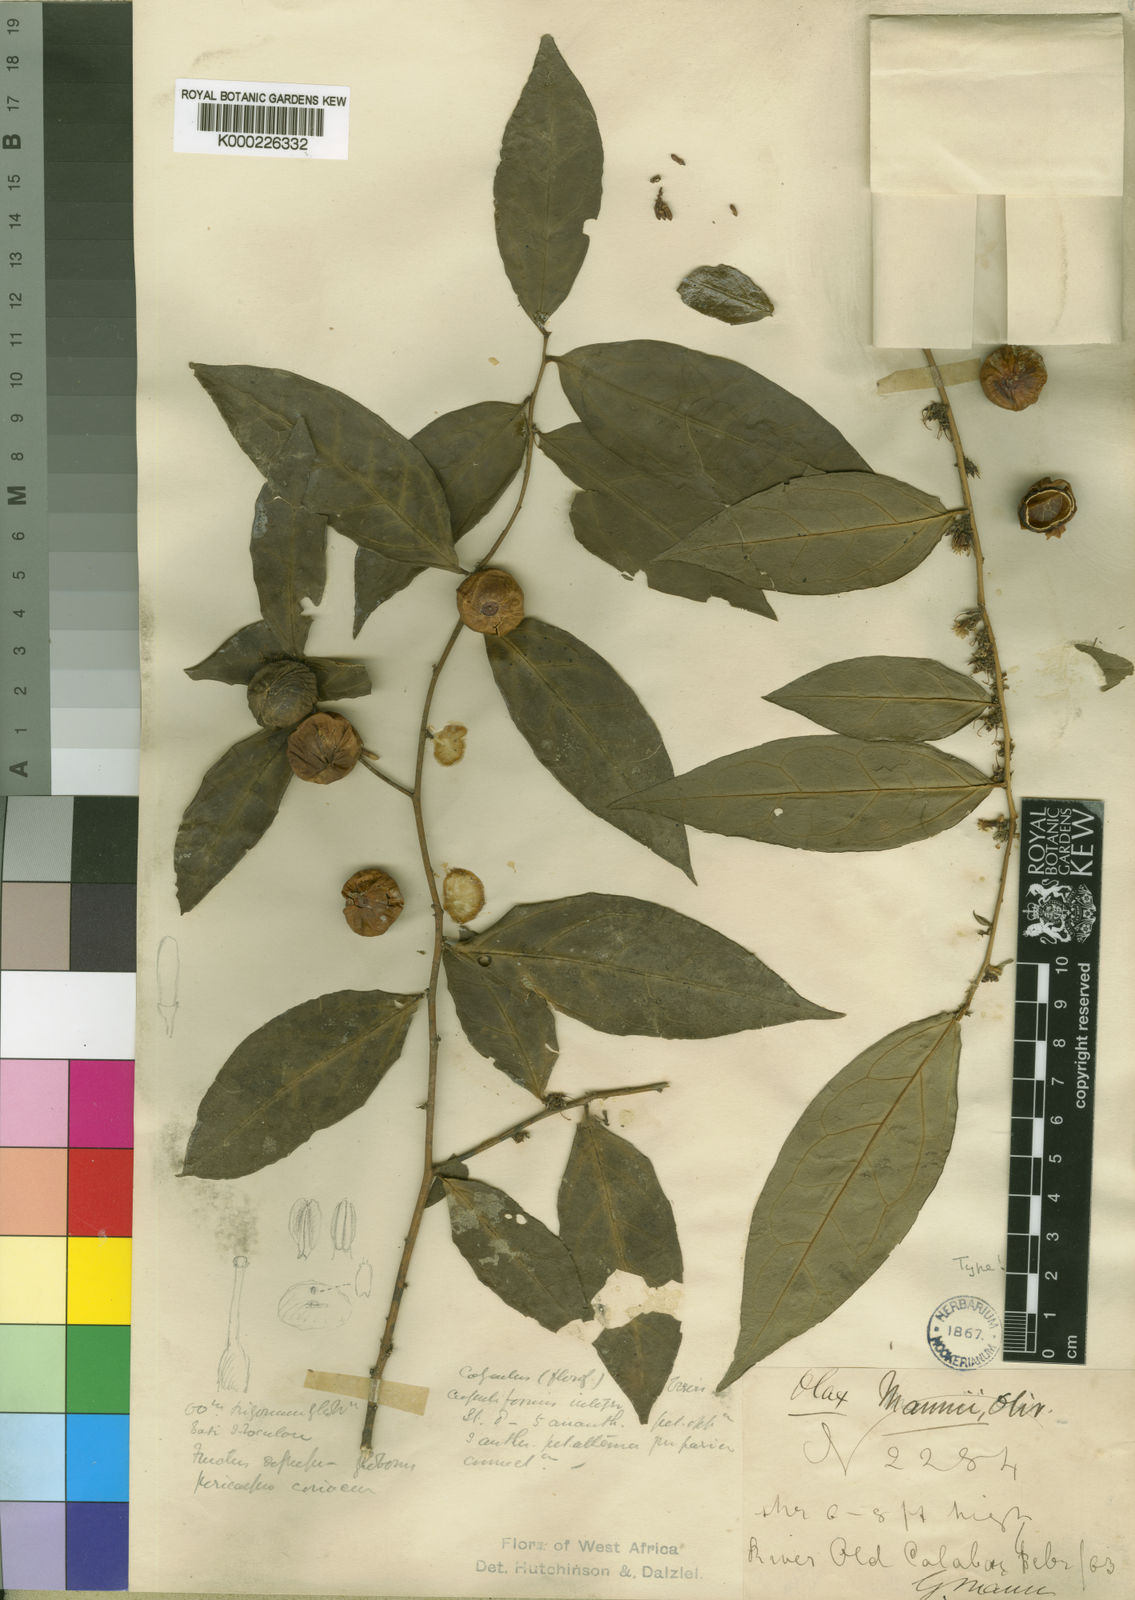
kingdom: Plantae
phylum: Tracheophyta
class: Magnoliopsida
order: Santalales
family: Olacaceae
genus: Olax
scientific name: Olax mannii
